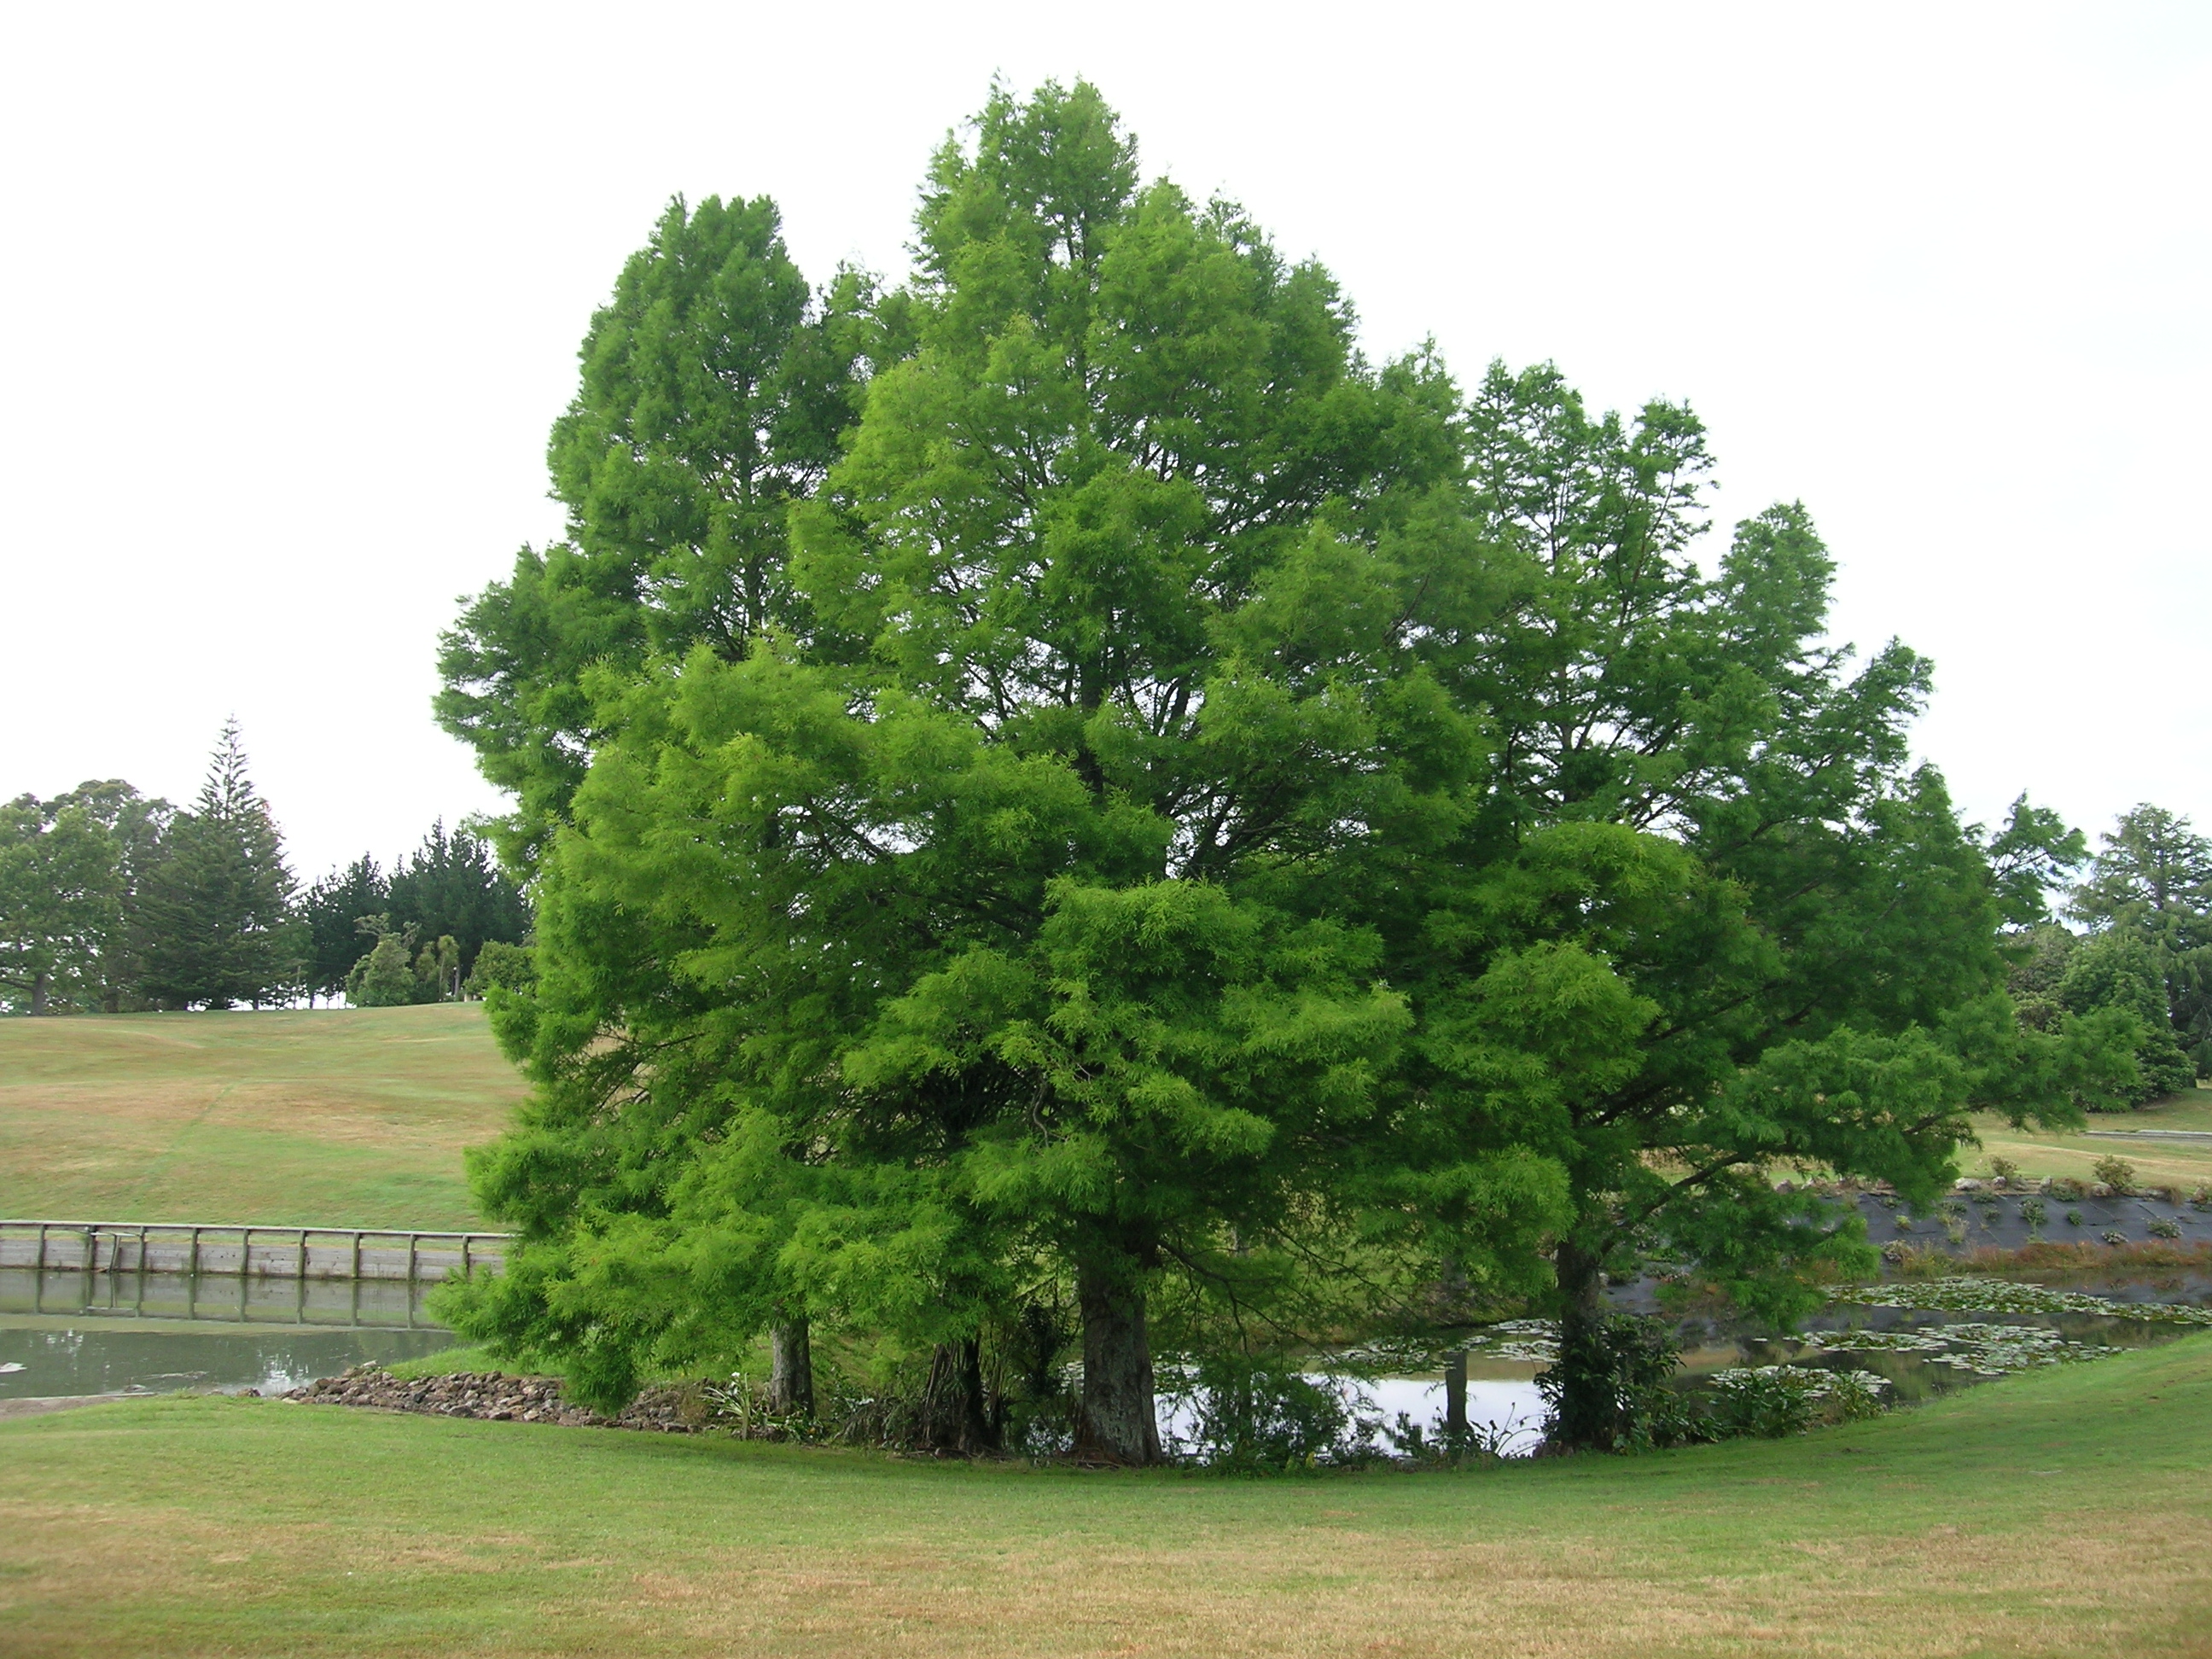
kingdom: Plantae
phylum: Tracheophyta
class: Pinopsida
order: Pinales
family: Cupressaceae
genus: Taxodium
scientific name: Taxodium distichum
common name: Bald cypress
